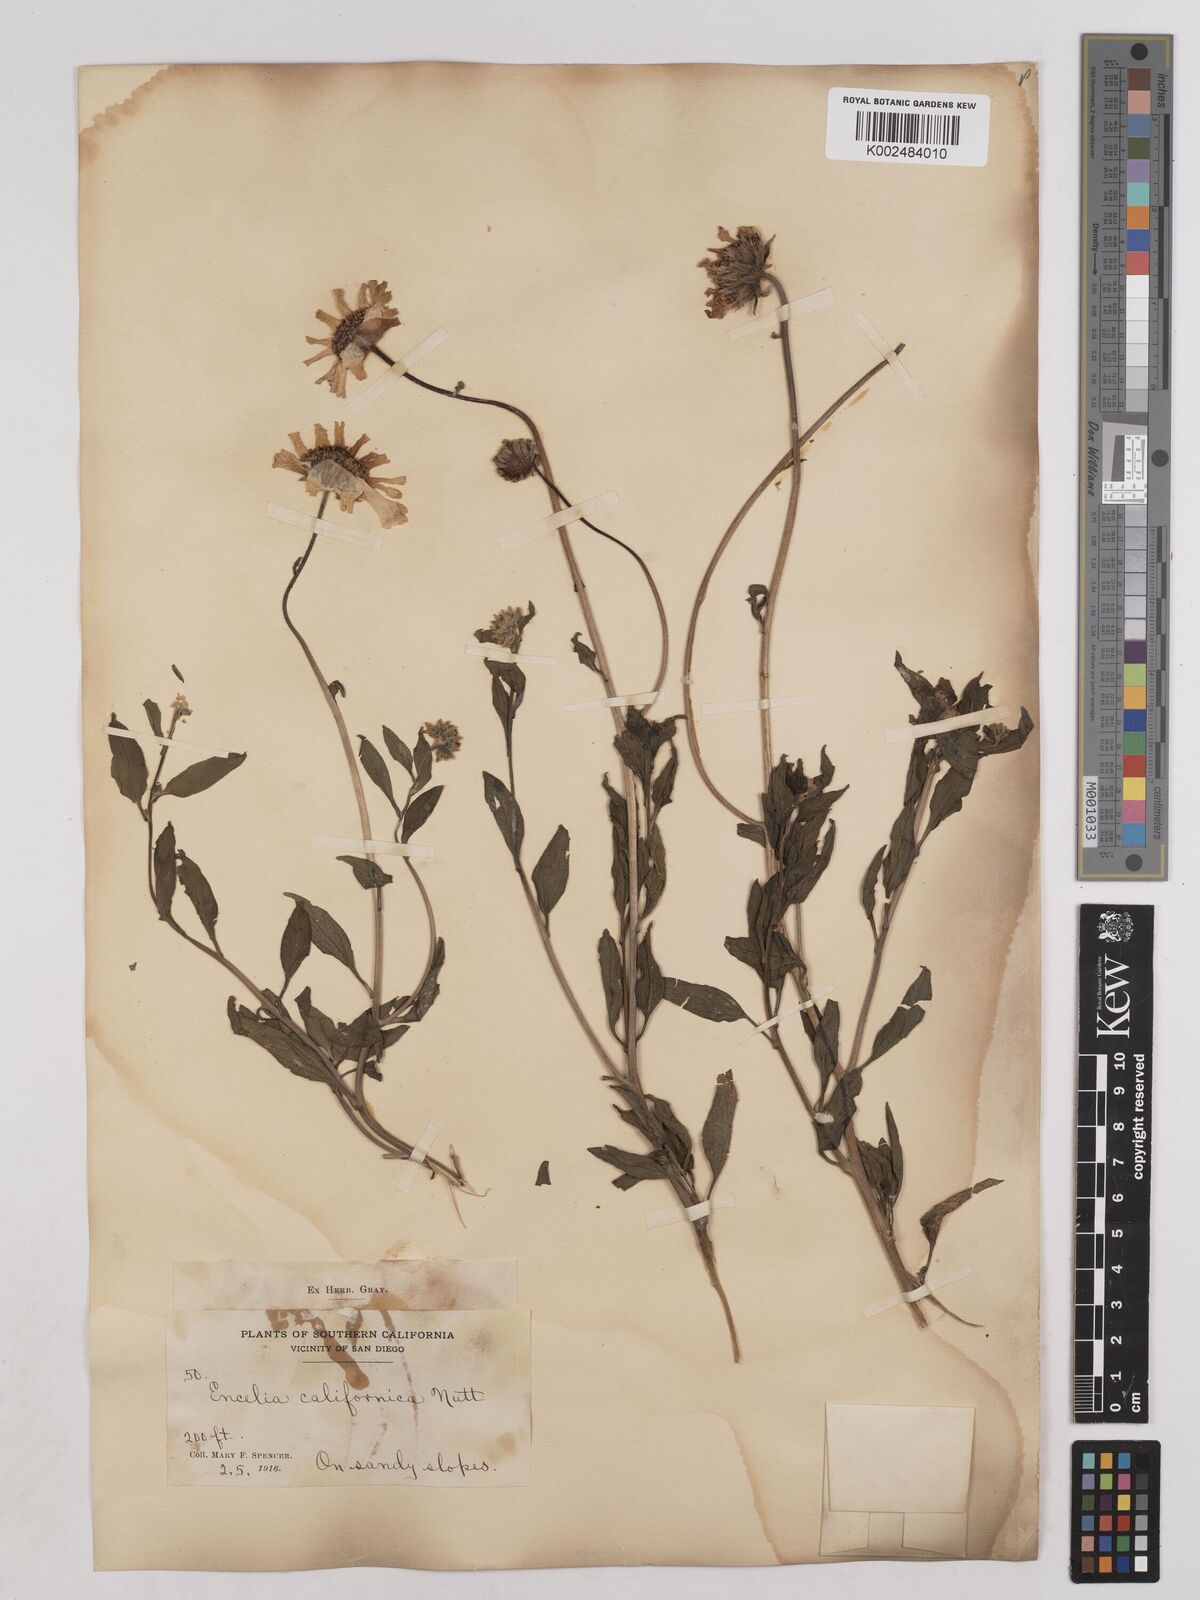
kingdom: Plantae
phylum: Tracheophyta
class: Magnoliopsida
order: Asterales
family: Asteraceae
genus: Encelia
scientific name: Encelia californica
